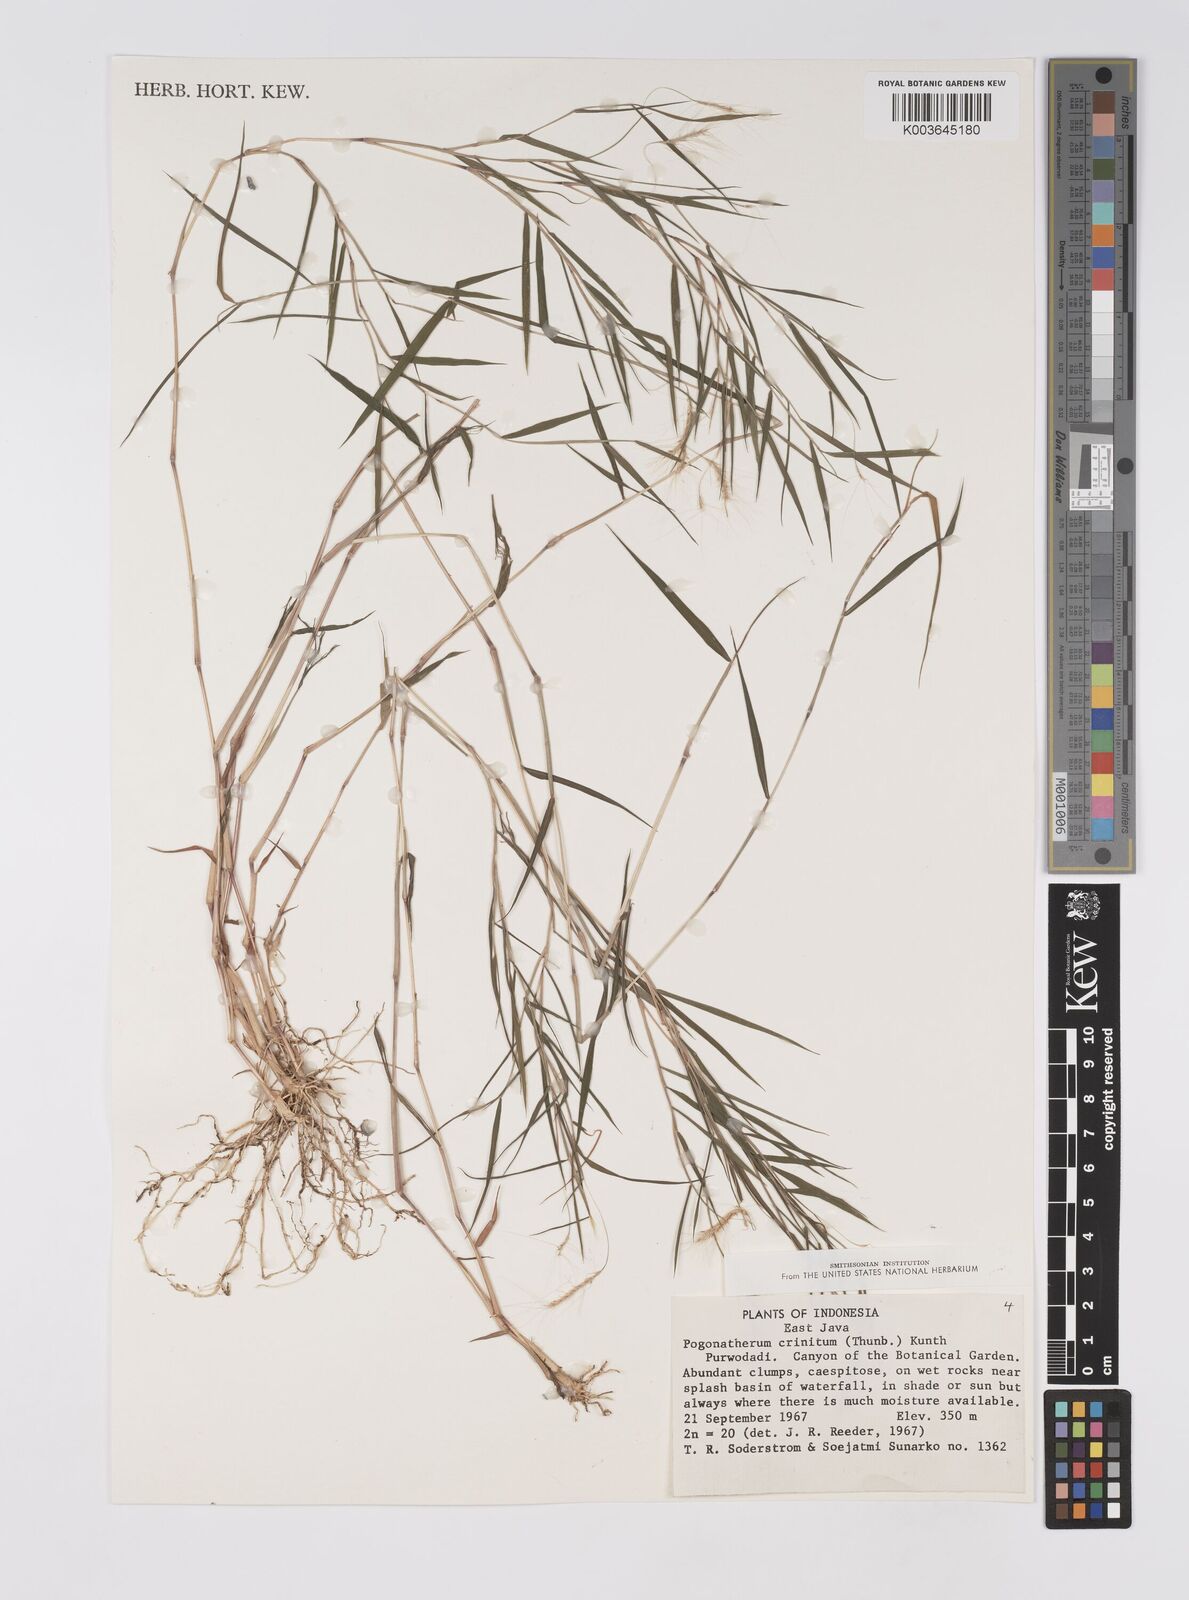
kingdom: Plantae
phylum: Tracheophyta
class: Liliopsida
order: Poales
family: Poaceae
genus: Pogonatherum
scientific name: Pogonatherum crinitum
